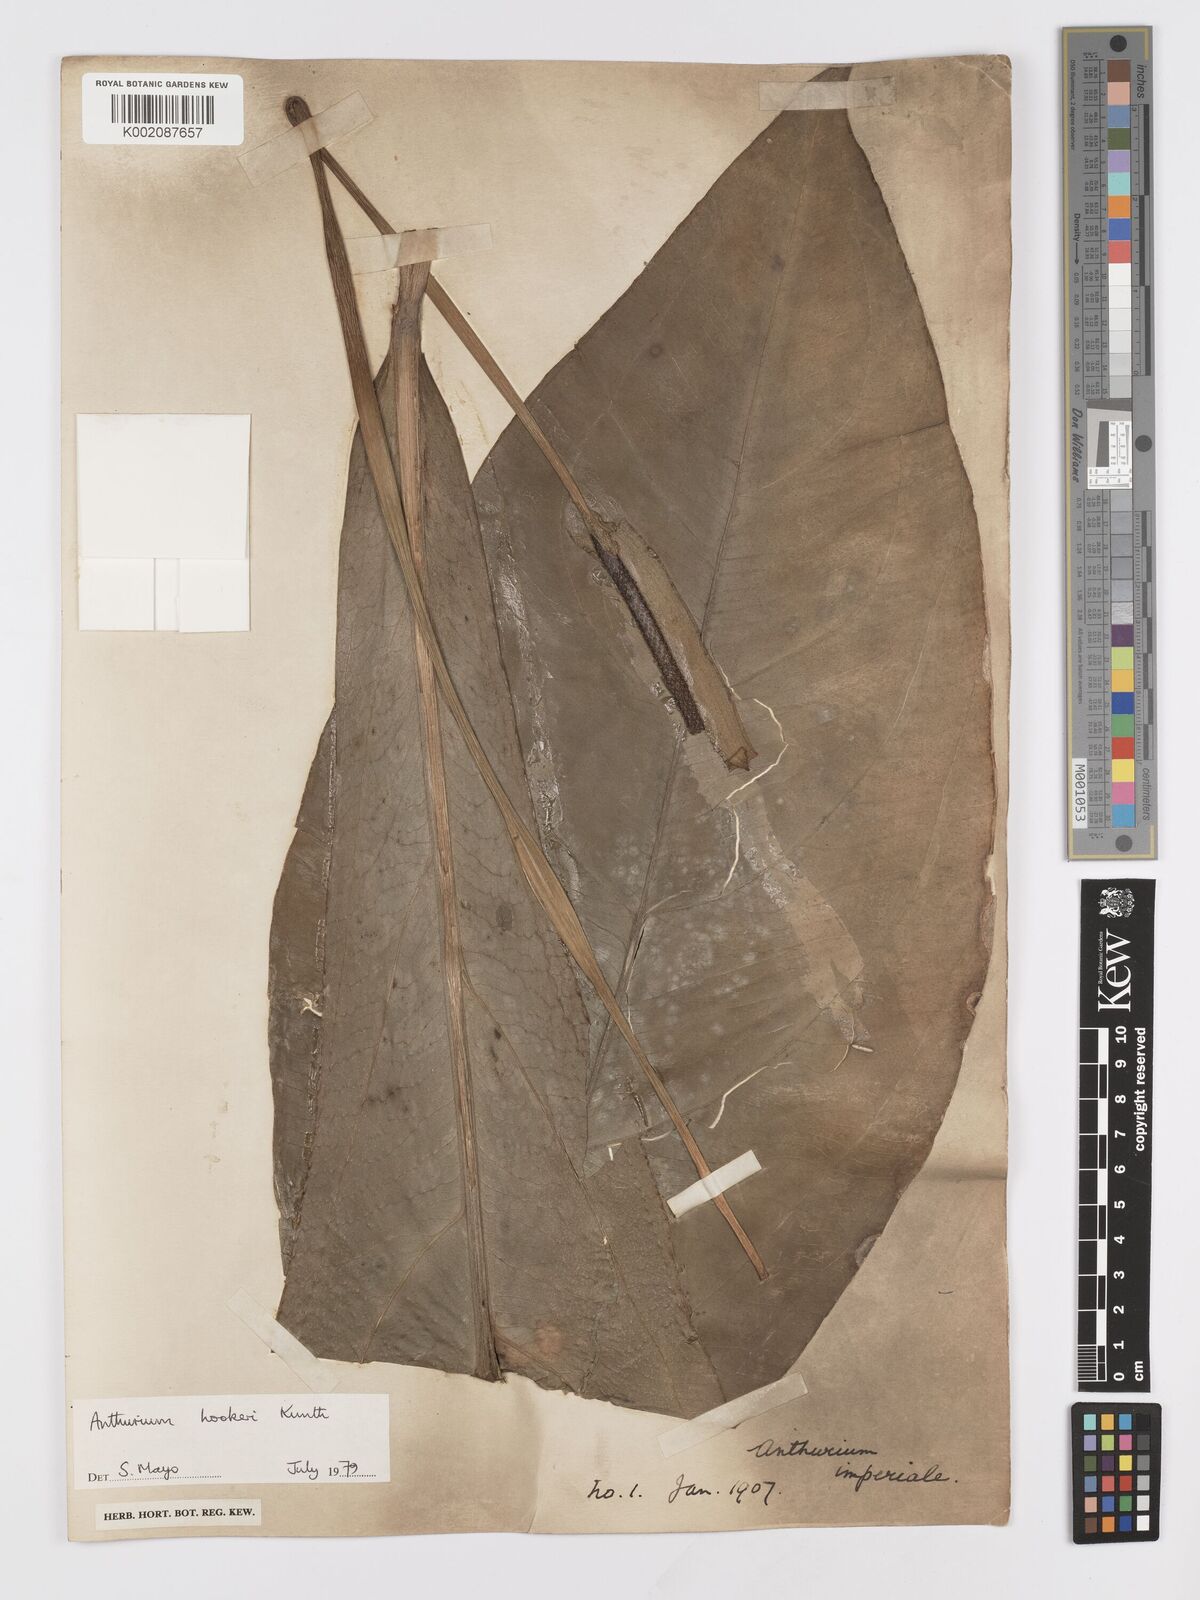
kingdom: Plantae
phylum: Tracheophyta
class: Liliopsida
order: Alismatales
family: Araceae
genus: Anthurium
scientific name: Anthurium hookeri
